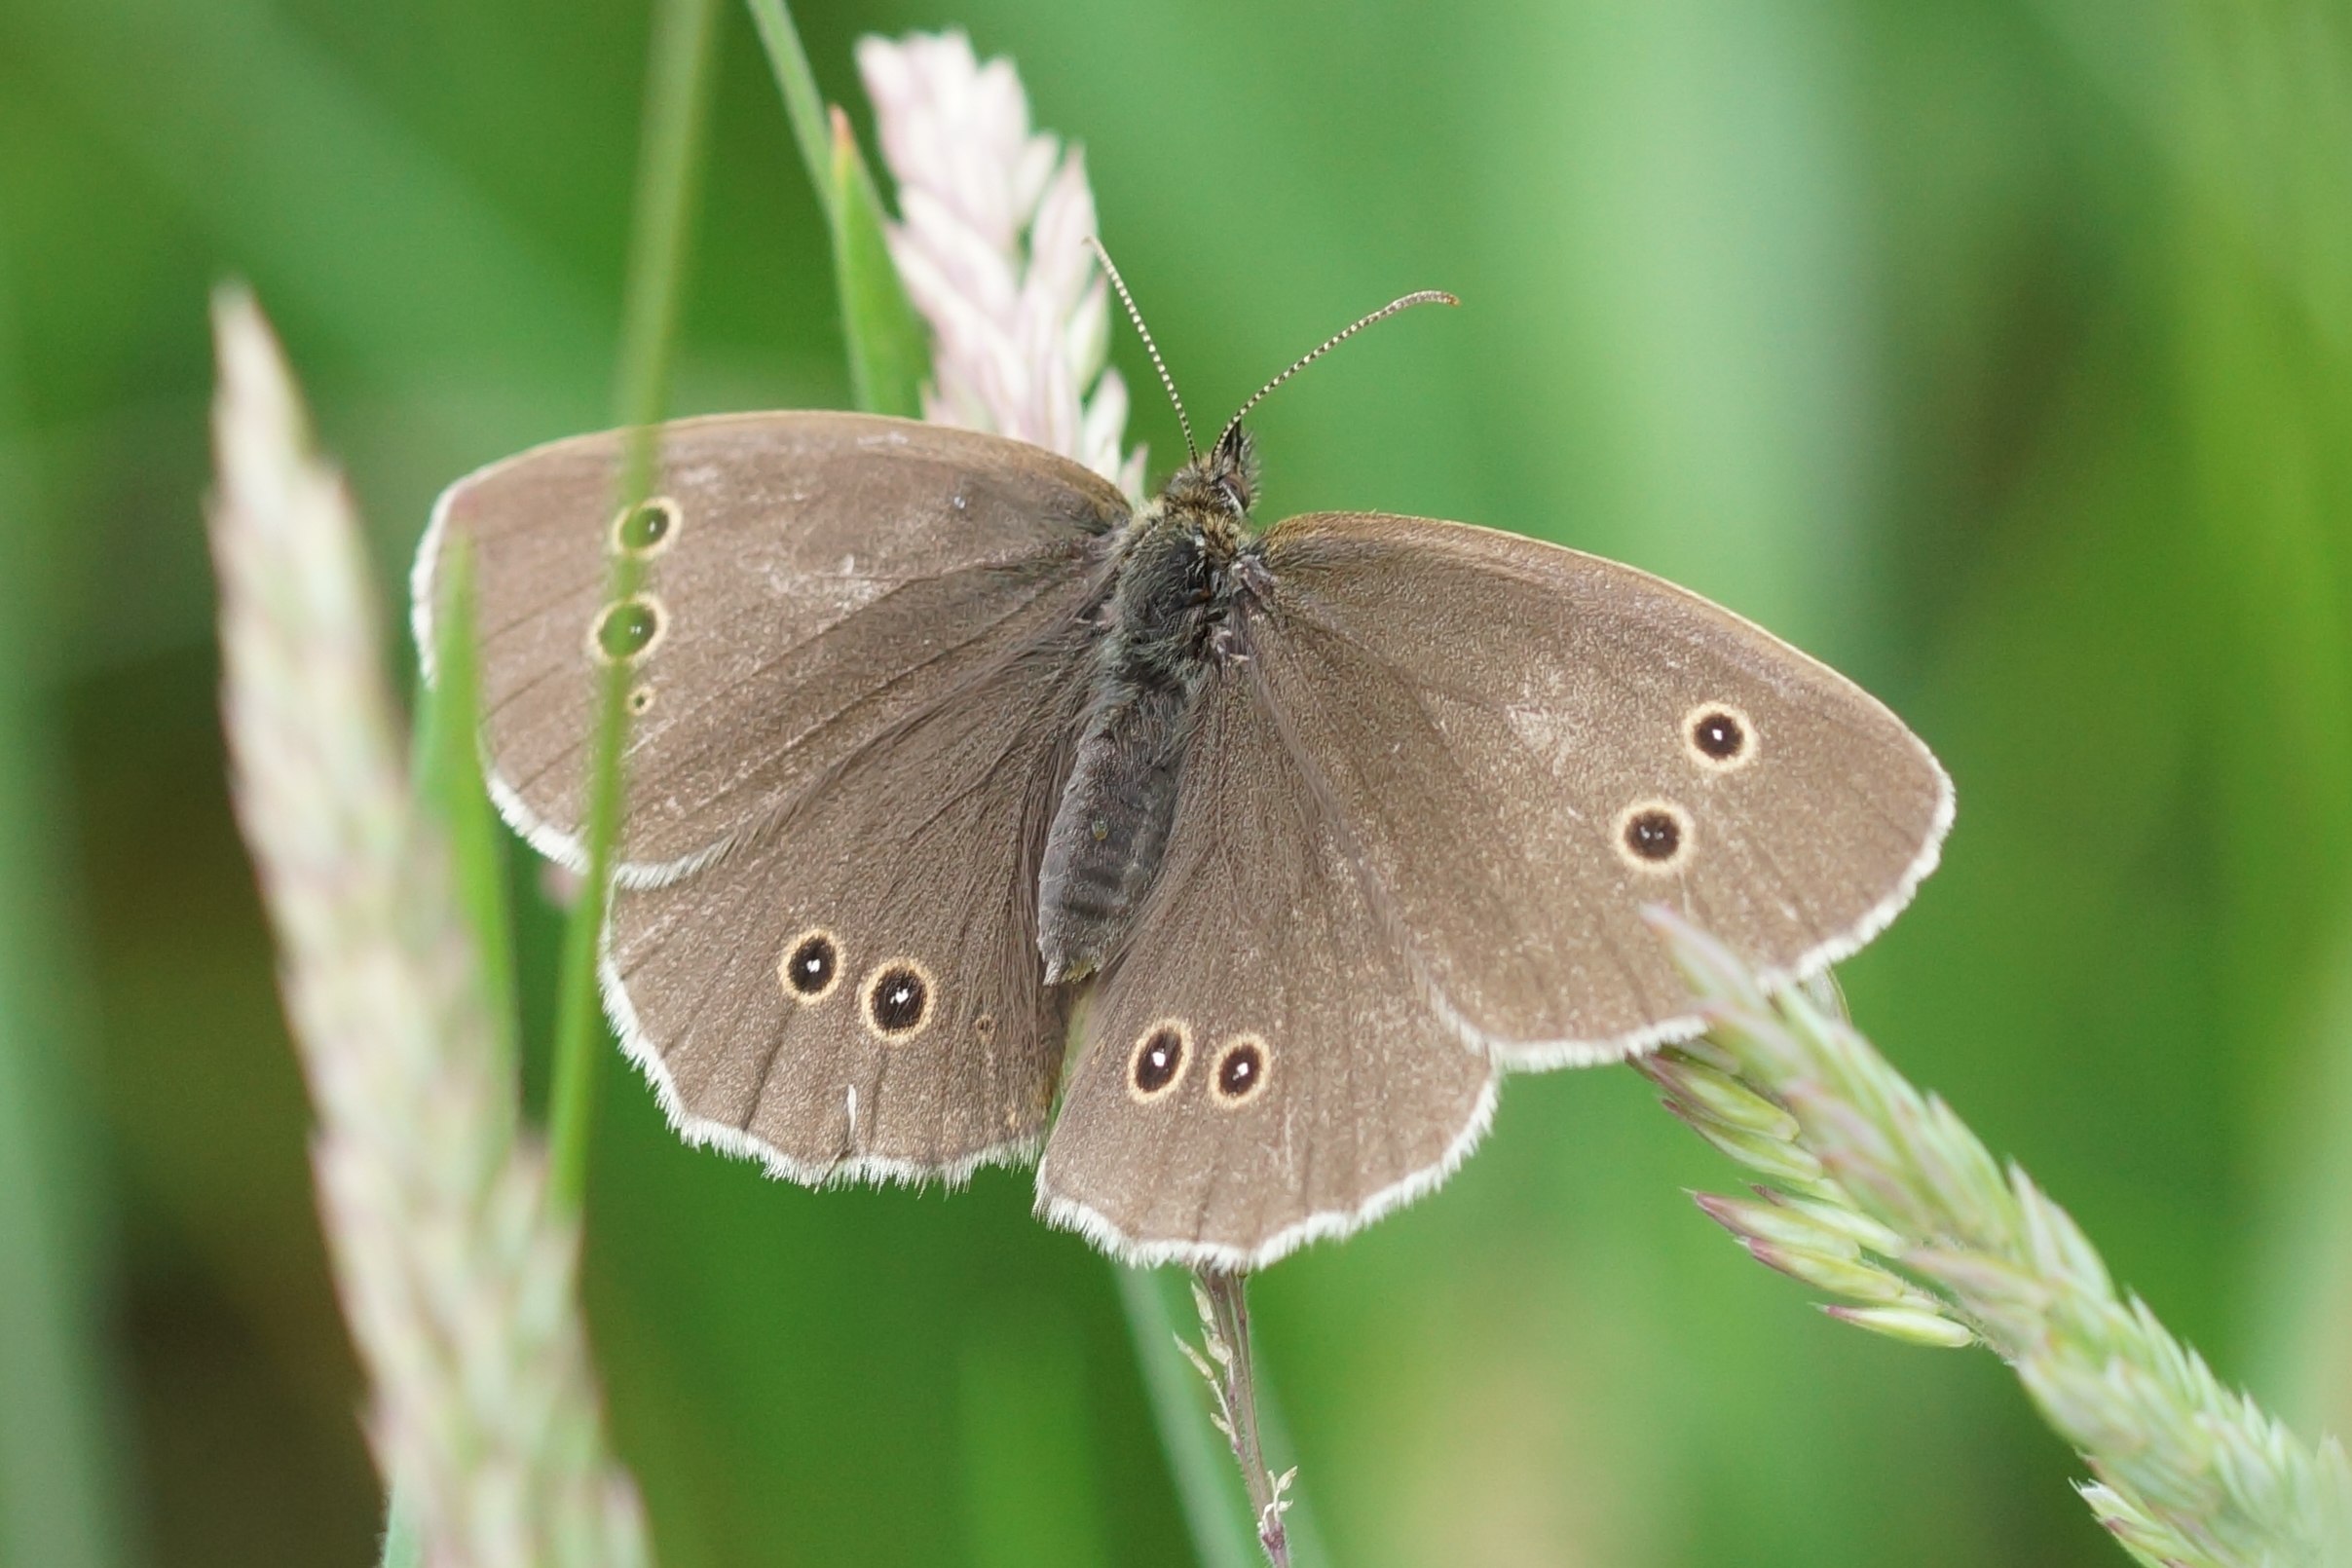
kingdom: Animalia
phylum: Arthropoda
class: Insecta
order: Lepidoptera
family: Nymphalidae
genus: Aphantopus
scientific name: Aphantopus hyperantus
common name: Engrandøje
